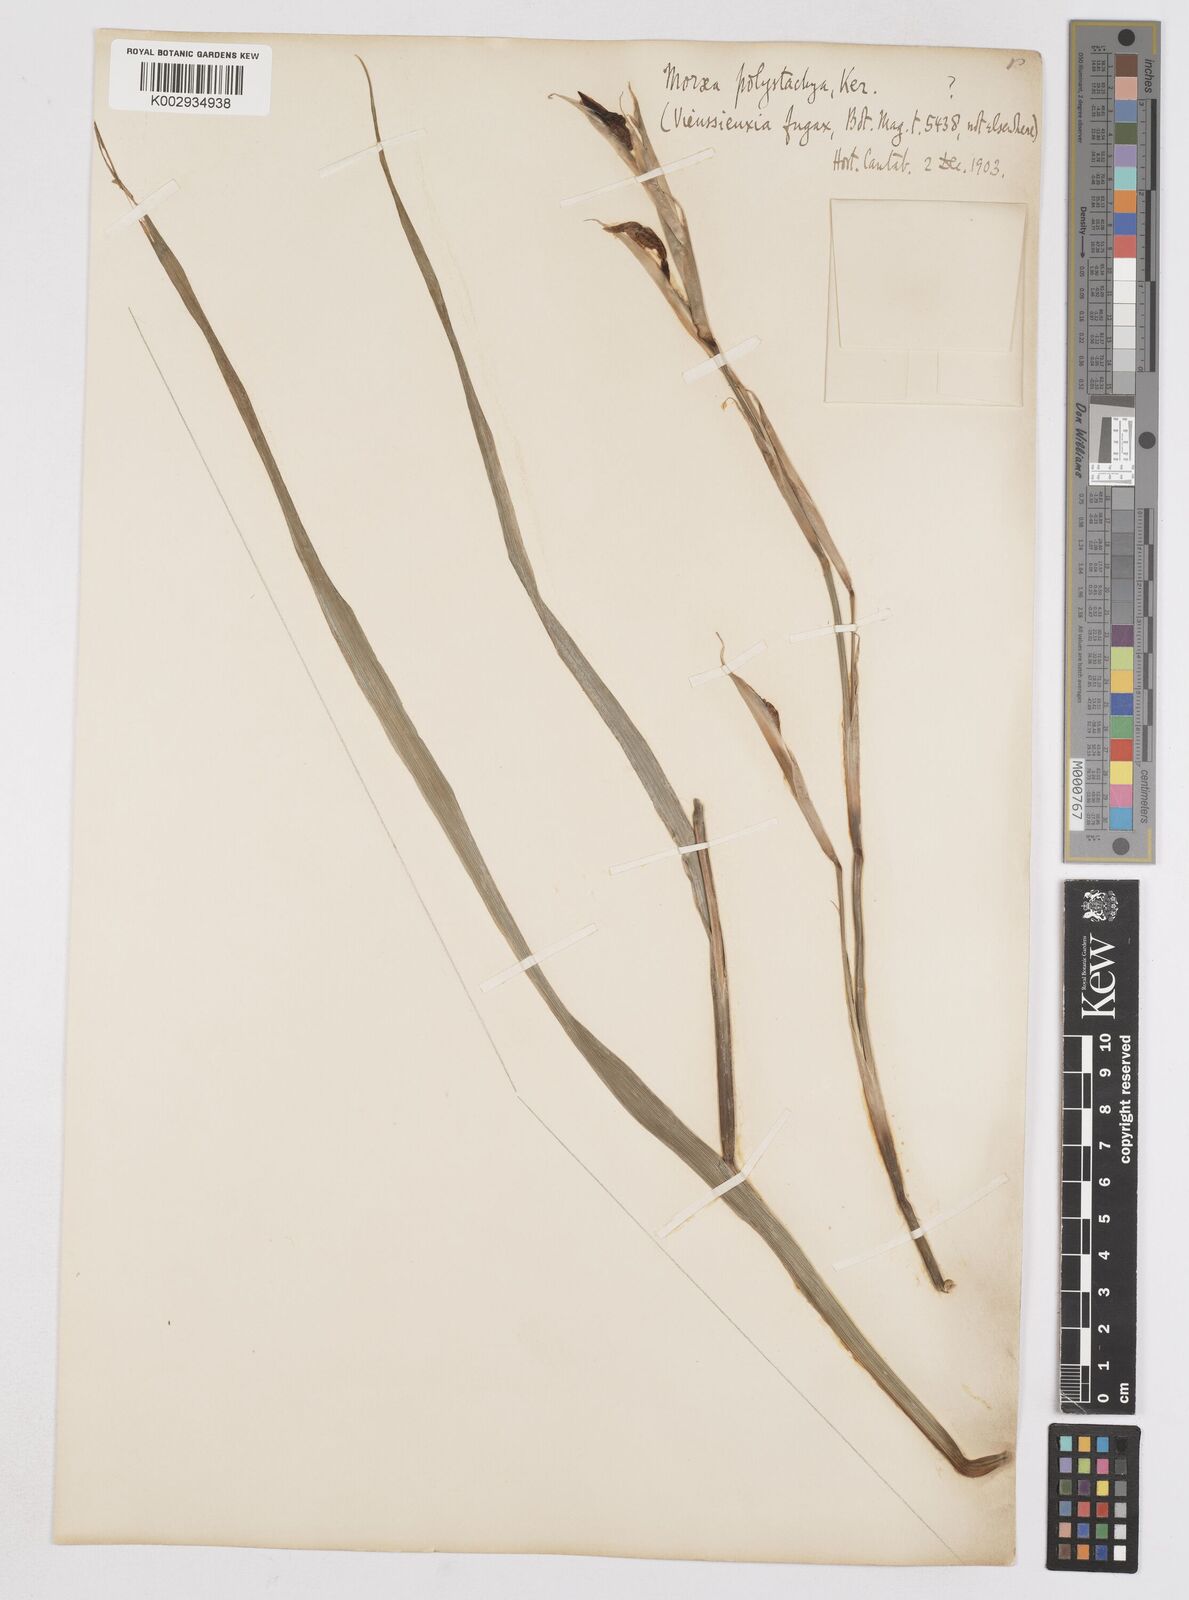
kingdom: Plantae
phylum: Tracheophyta
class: Liliopsida
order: Asparagales
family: Iridaceae
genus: Moraea
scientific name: Moraea polystachya
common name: Blue-tulip
